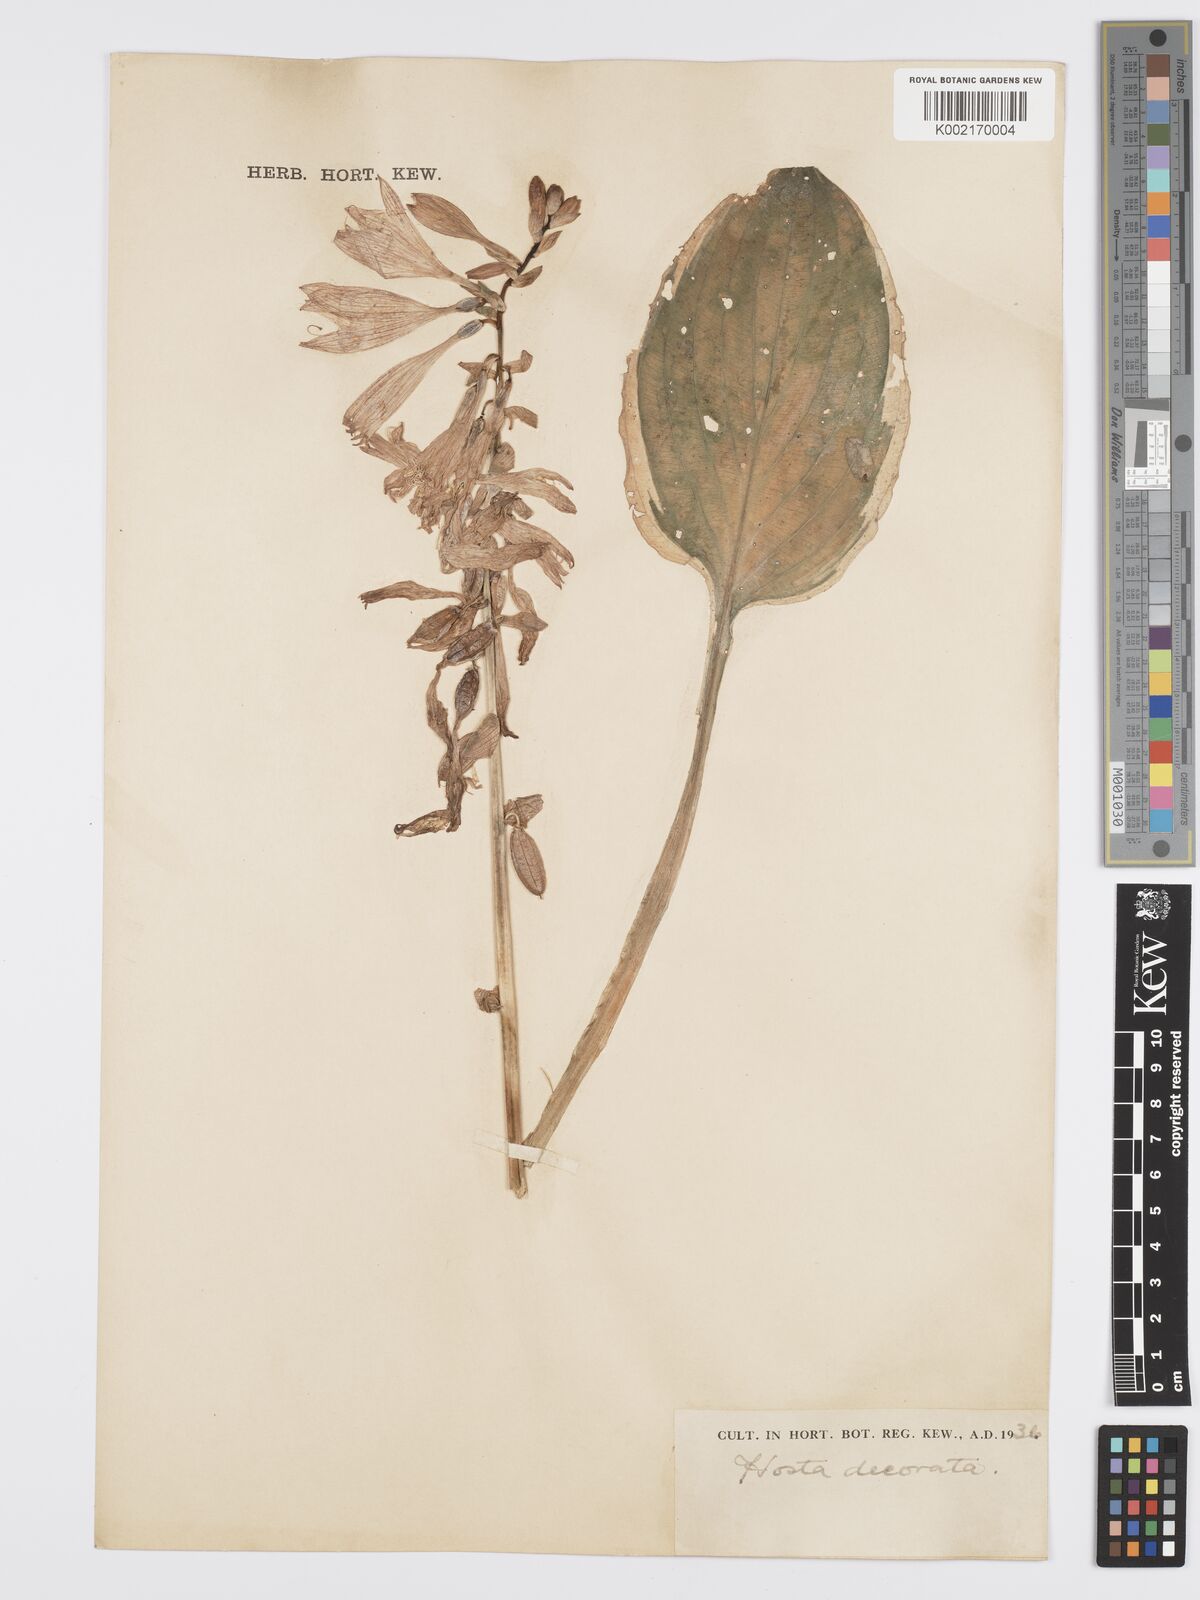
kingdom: Plantae
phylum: Tracheophyta
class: Liliopsida
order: Asparagales
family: Asparagaceae
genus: Hosta
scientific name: Hosta sieboldii
